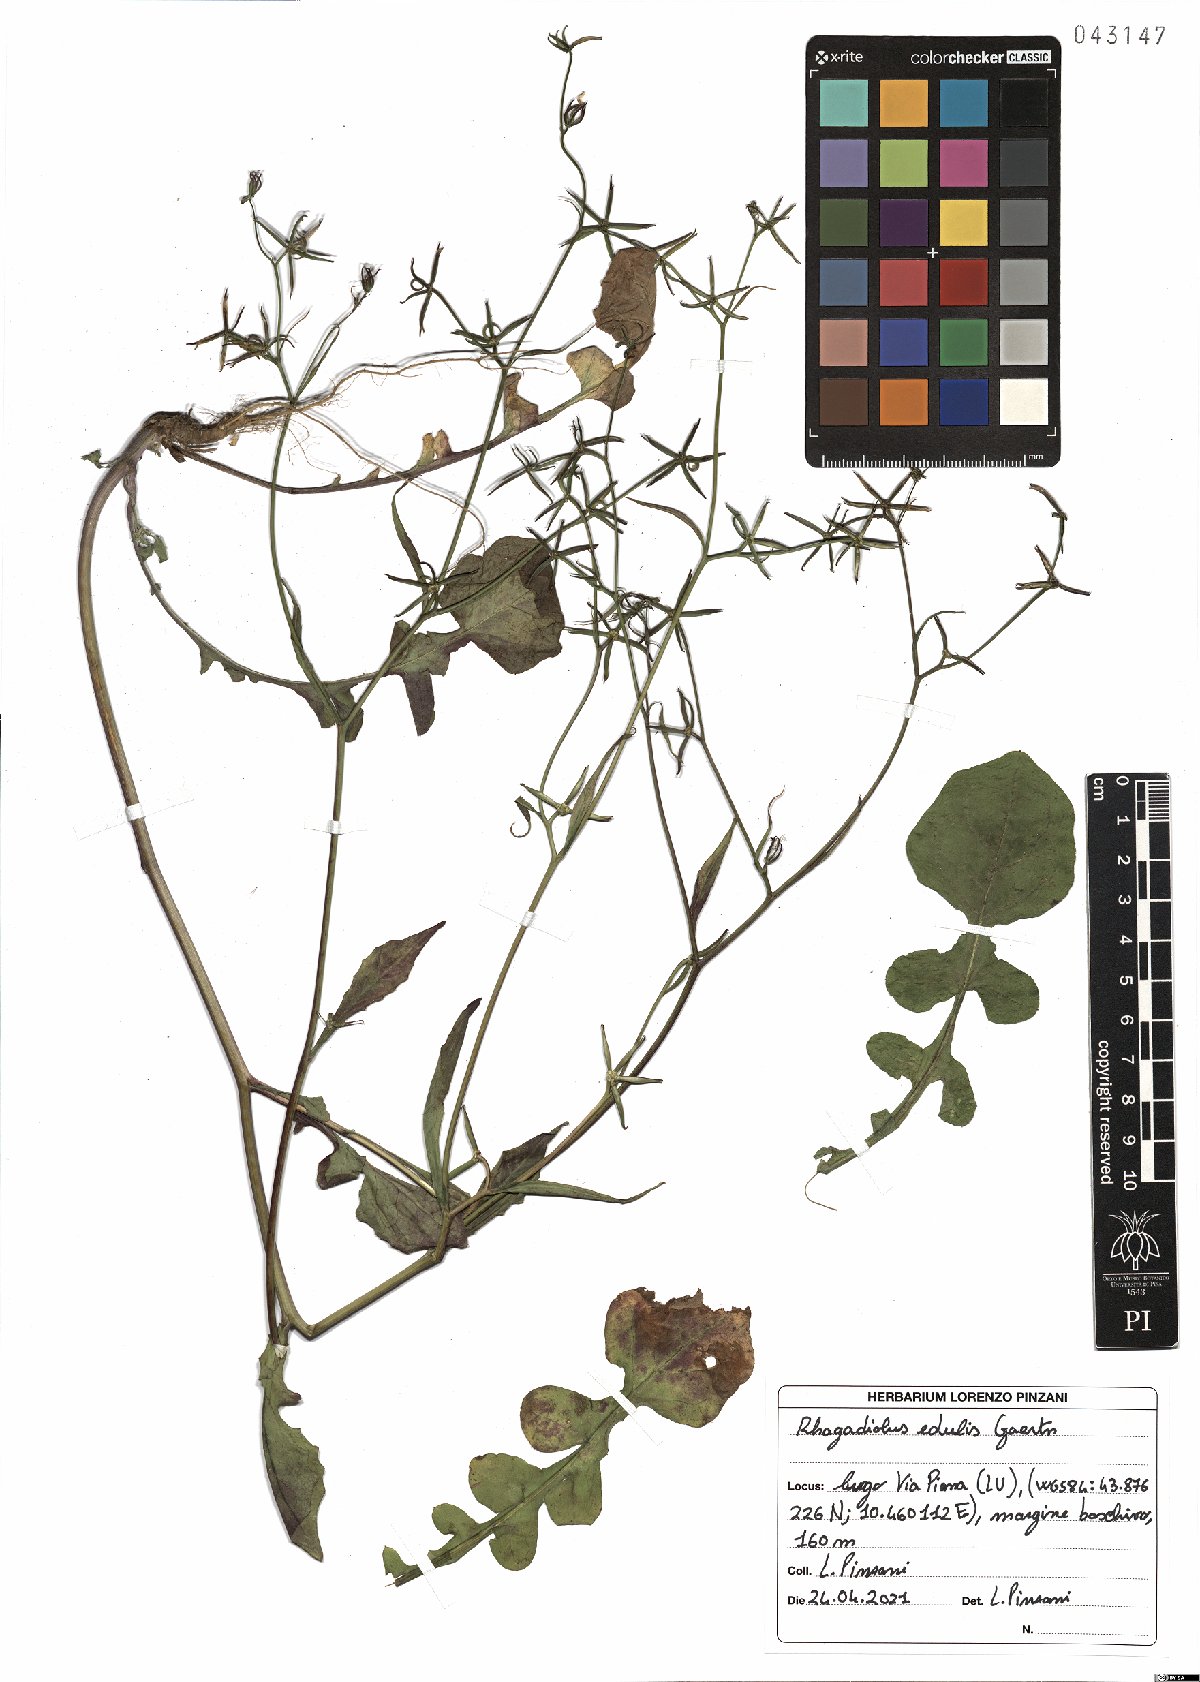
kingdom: Plantae
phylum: Tracheophyta
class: Magnoliopsida
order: Asterales
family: Asteraceae
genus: Rhagadiolus
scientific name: Rhagadiolus edulis
